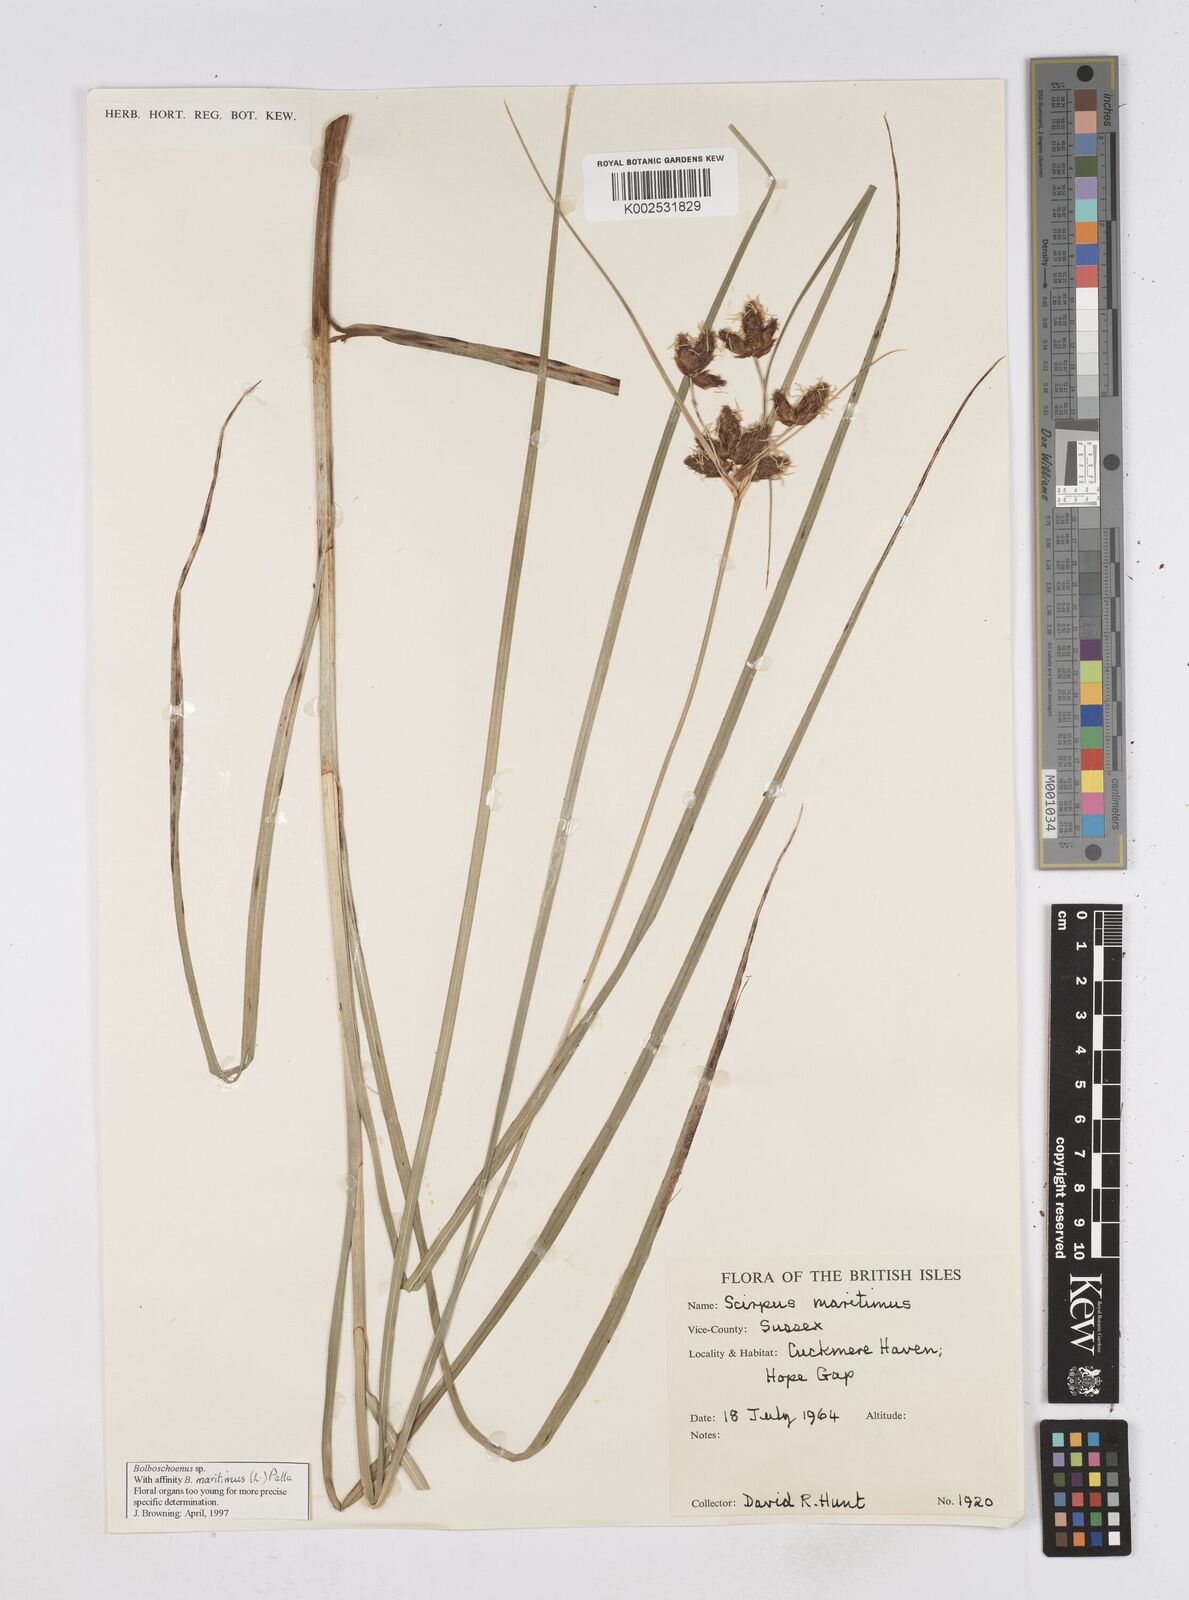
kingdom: Plantae
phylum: Tracheophyta
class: Liliopsida
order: Poales
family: Cyperaceae
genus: Bolboschoenus
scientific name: Bolboschoenus maritimus
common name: Sea club-rush
